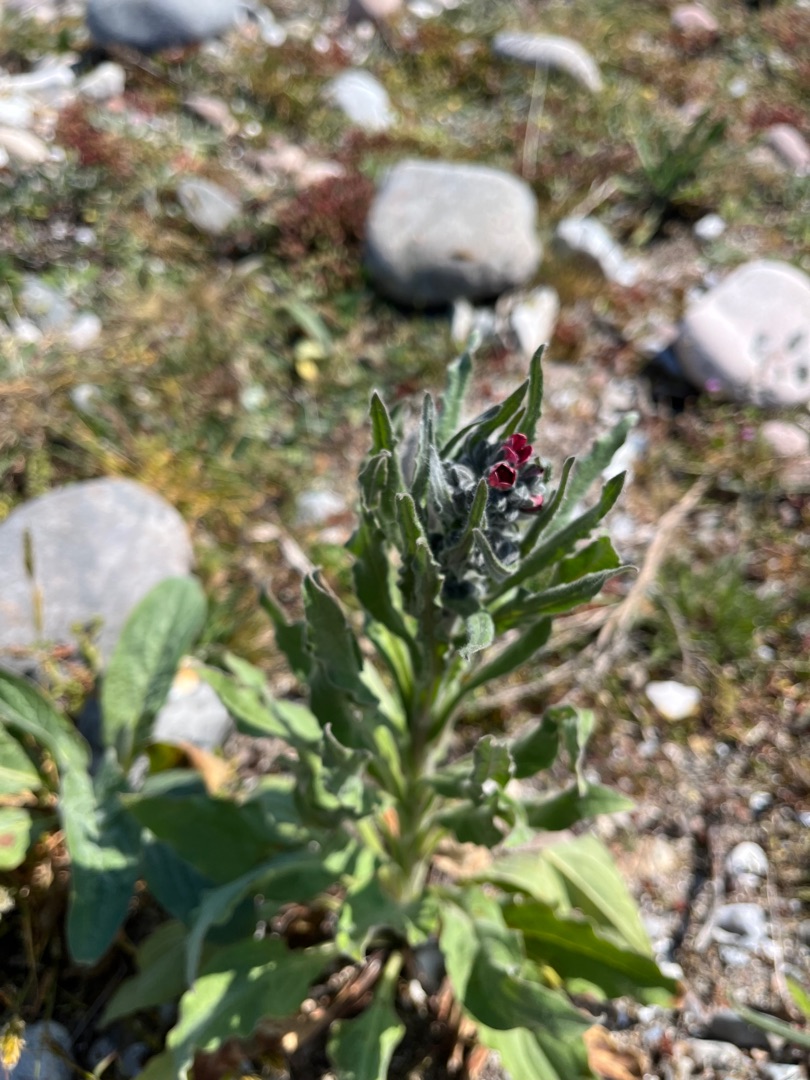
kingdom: Plantae
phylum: Tracheophyta
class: Magnoliopsida
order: Boraginales
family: Boraginaceae
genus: Cynoglossum
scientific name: Cynoglossum officinale
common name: Hundetunge
